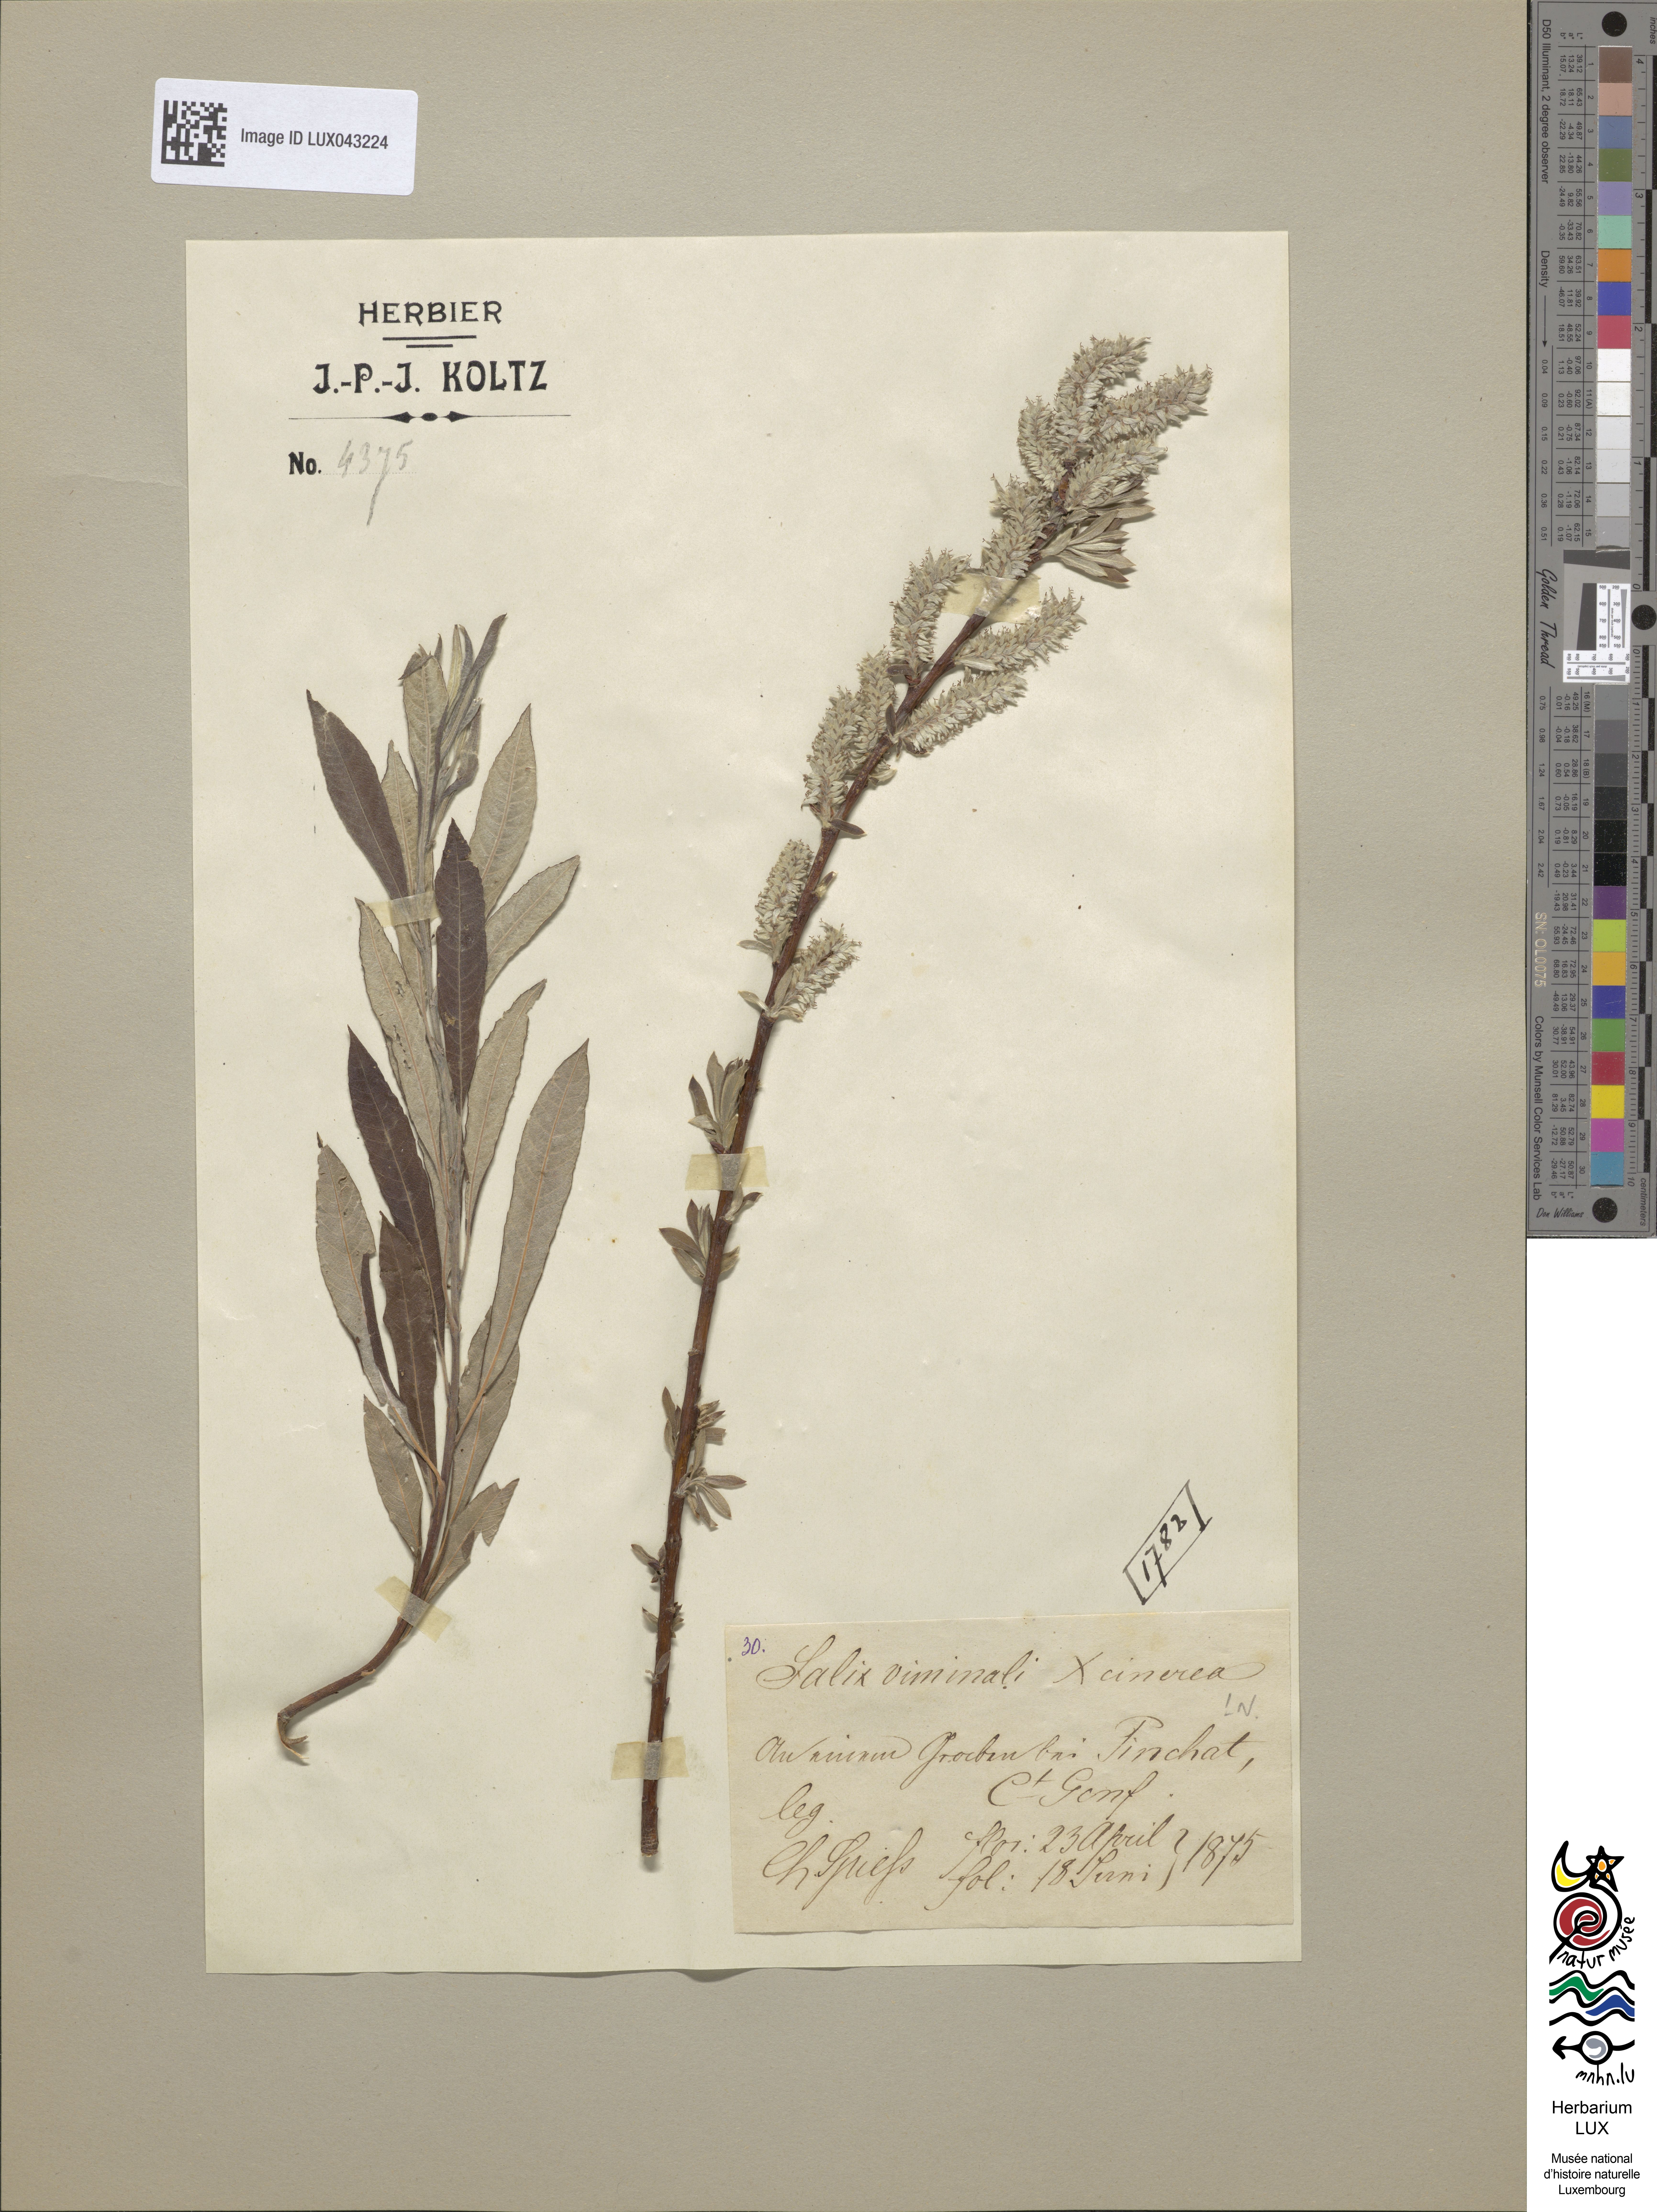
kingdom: Plantae
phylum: Tracheophyta
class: Magnoliopsida
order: Malpighiales
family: Salicaceae
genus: Salix
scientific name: Salix stipularis
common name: Eared osier
